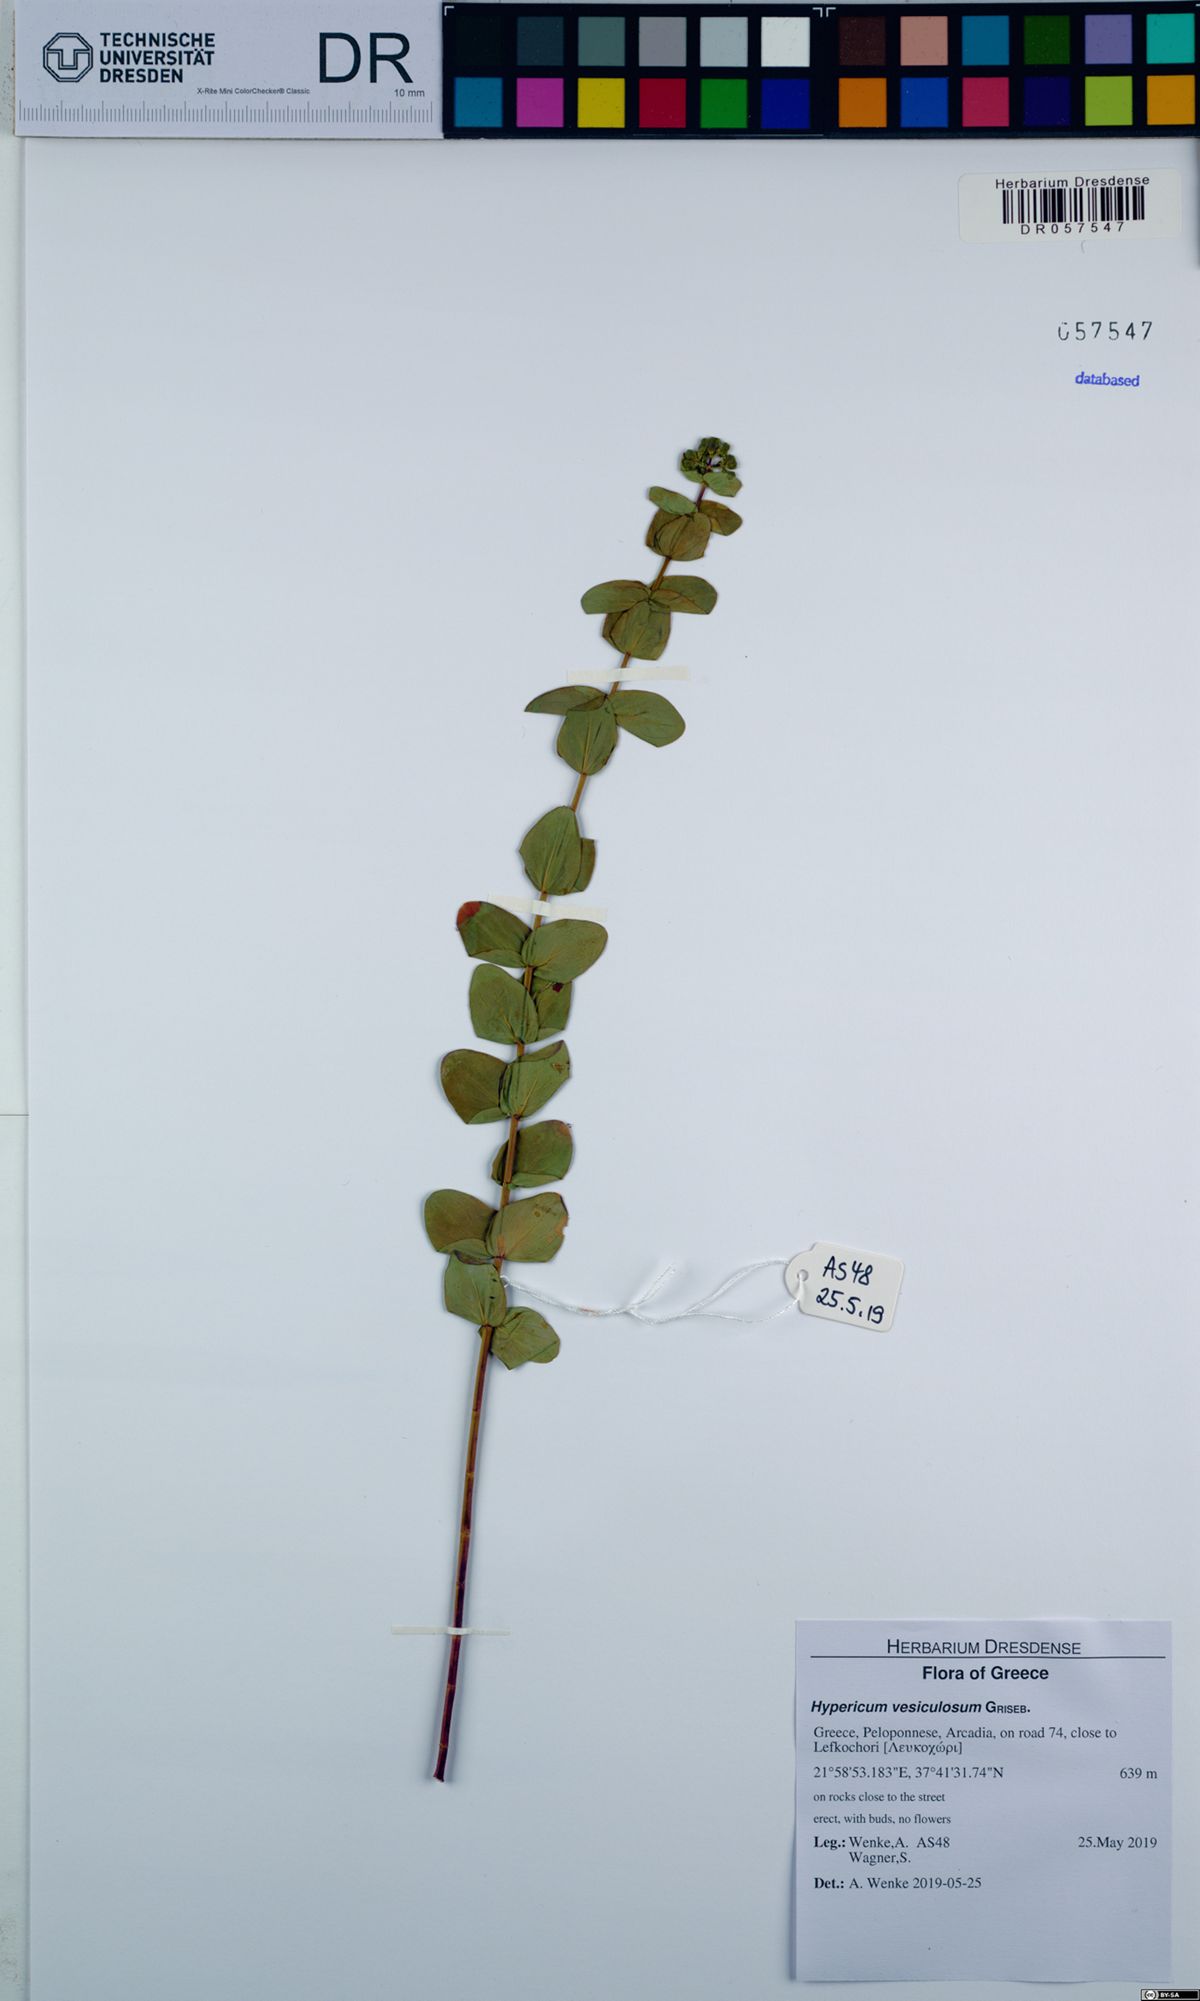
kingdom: Plantae
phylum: Tracheophyta
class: Magnoliopsida
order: Malpighiales
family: Hypericaceae
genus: Hypericum
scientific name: Hypericum vesiculosum
